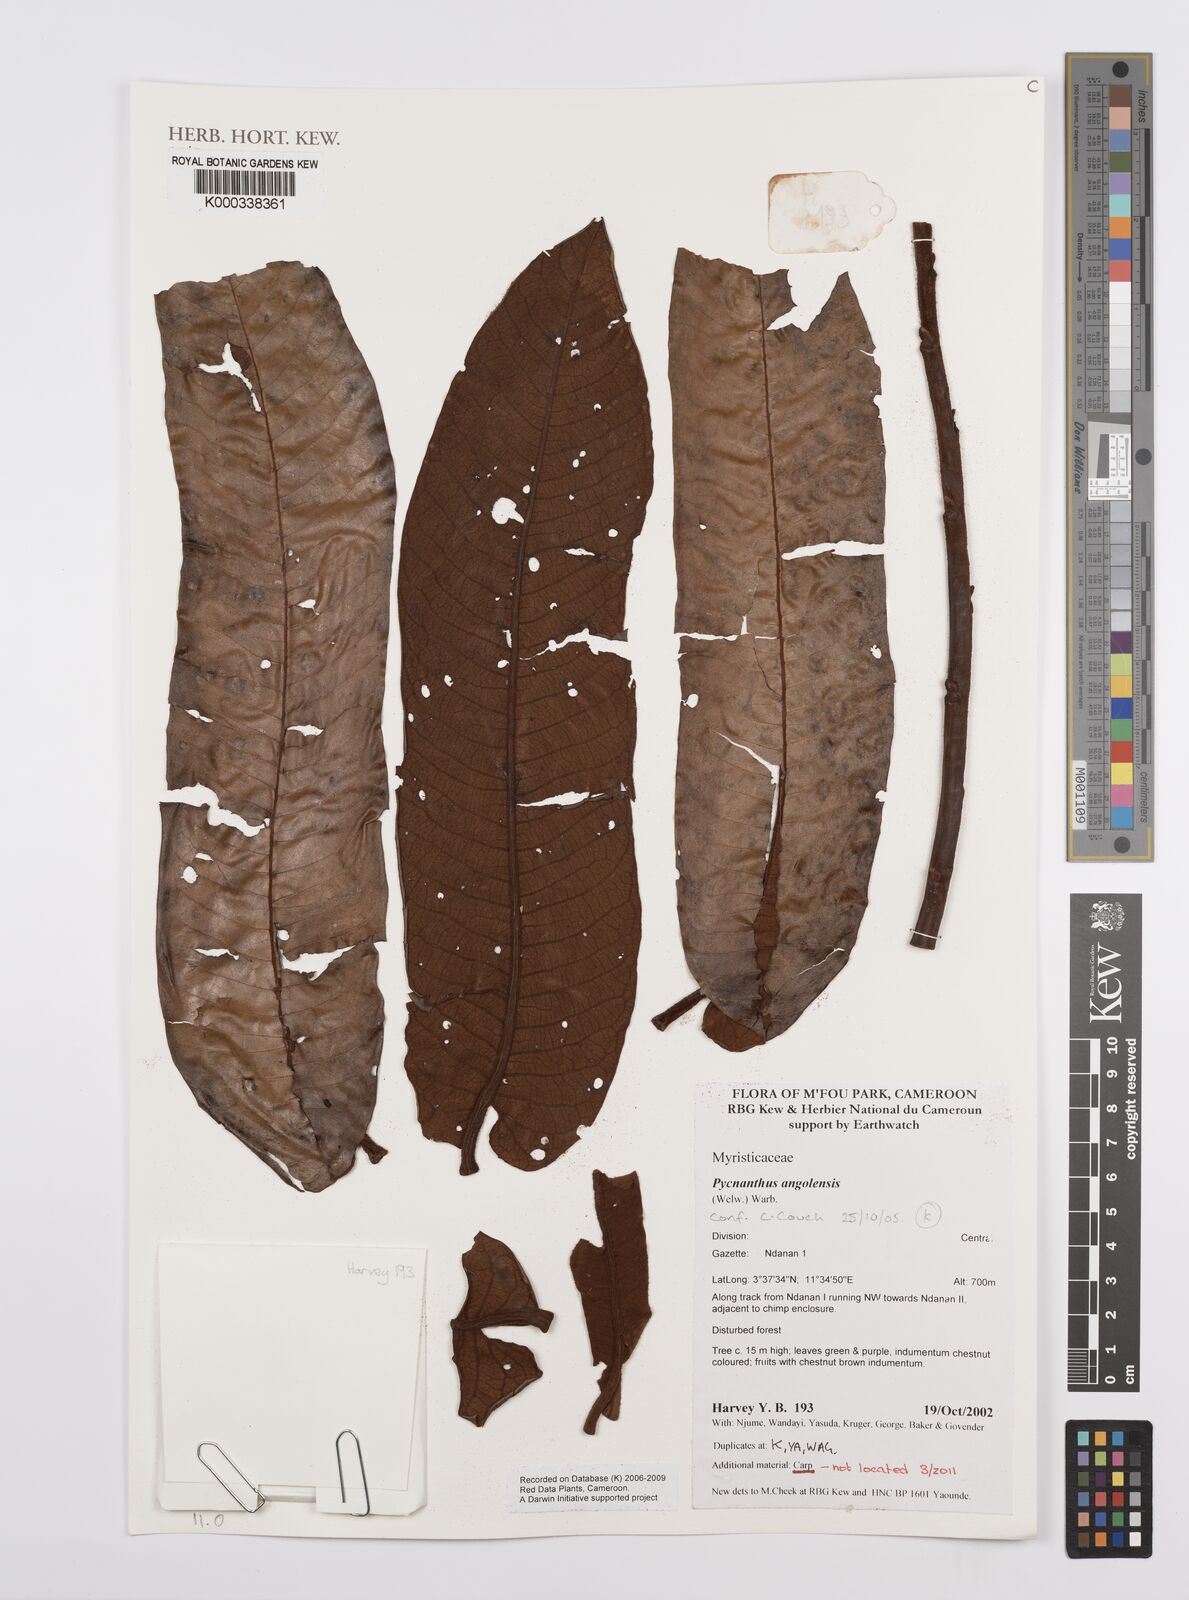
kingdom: Plantae
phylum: Tracheophyta
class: Magnoliopsida
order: Magnoliales
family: Myristicaceae
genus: Pycnanthus
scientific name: Pycnanthus angolensis
